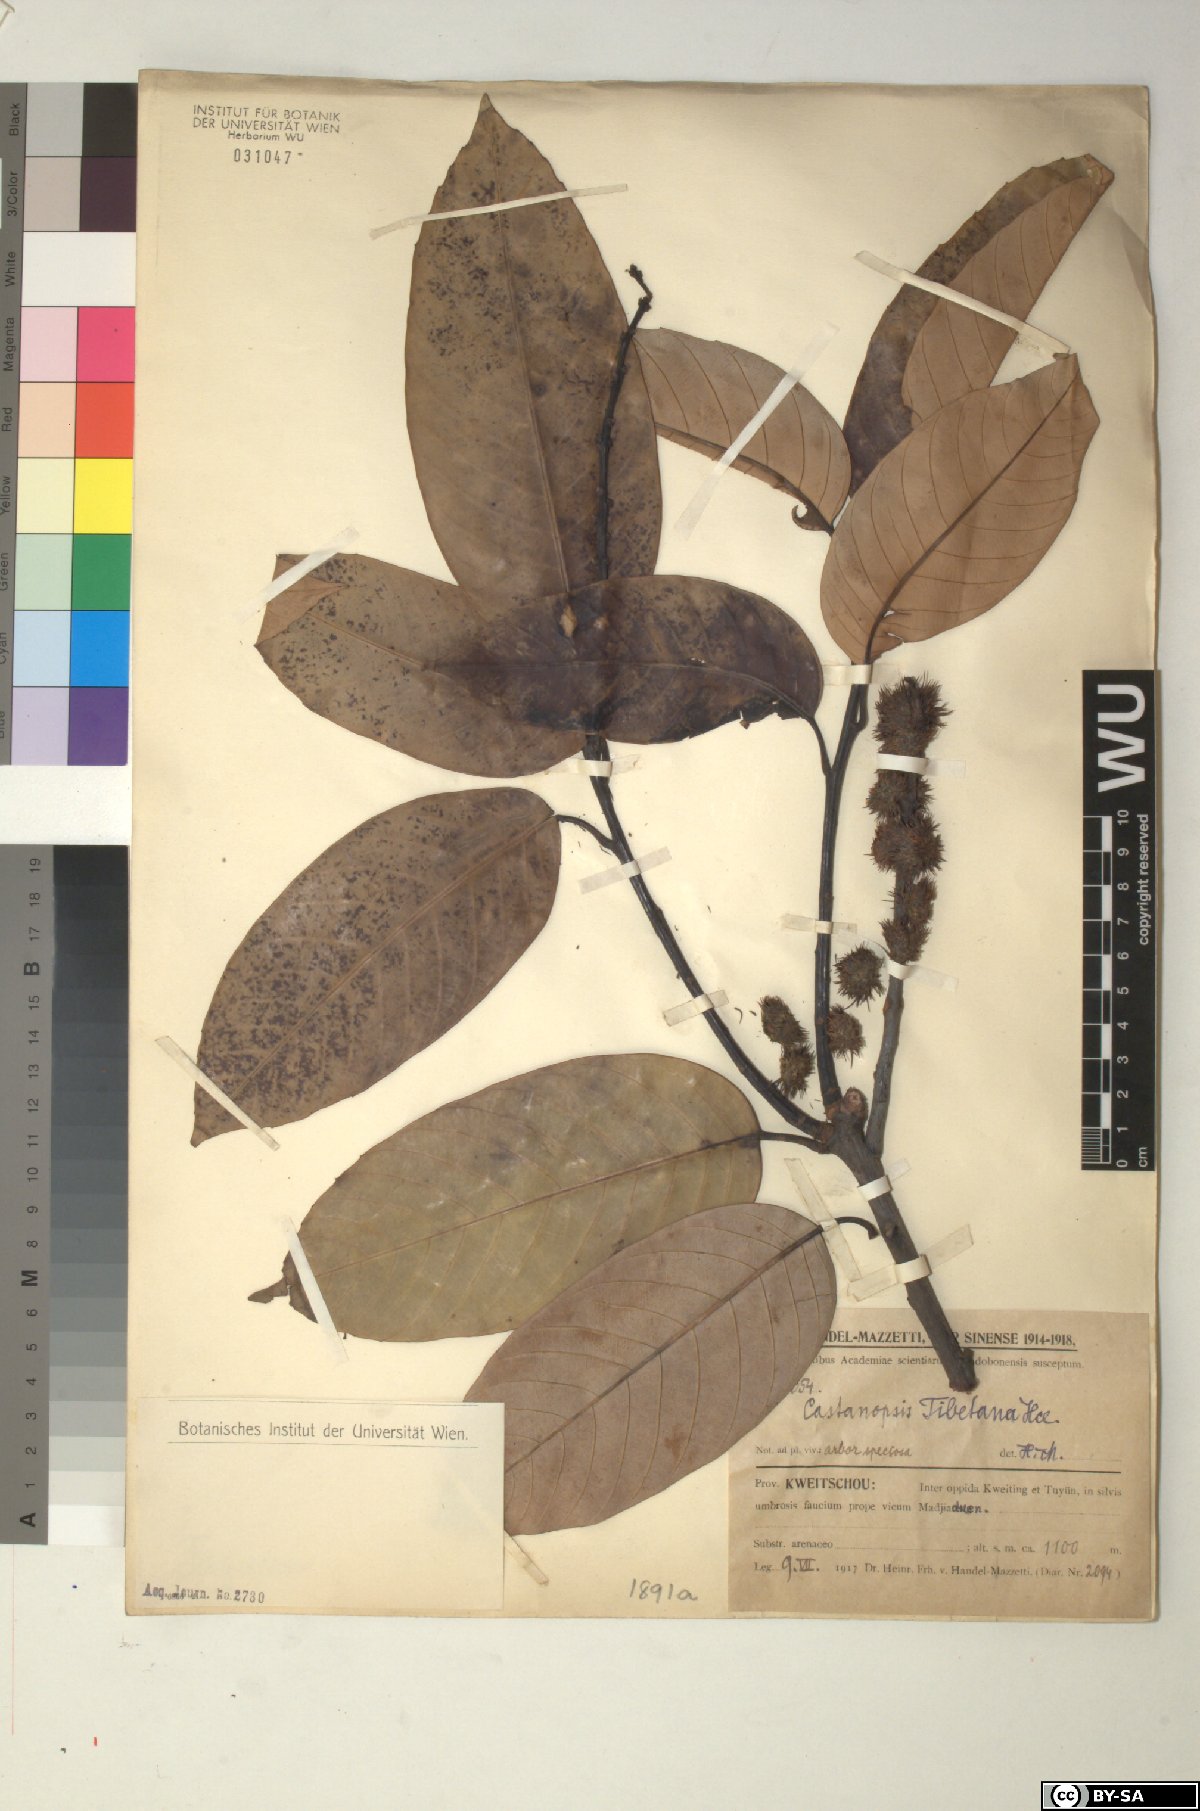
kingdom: Plantae
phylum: Tracheophyta
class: Magnoliopsida
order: Fagales
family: Fagaceae
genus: Castanopsis
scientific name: Castanopsis tibetana
